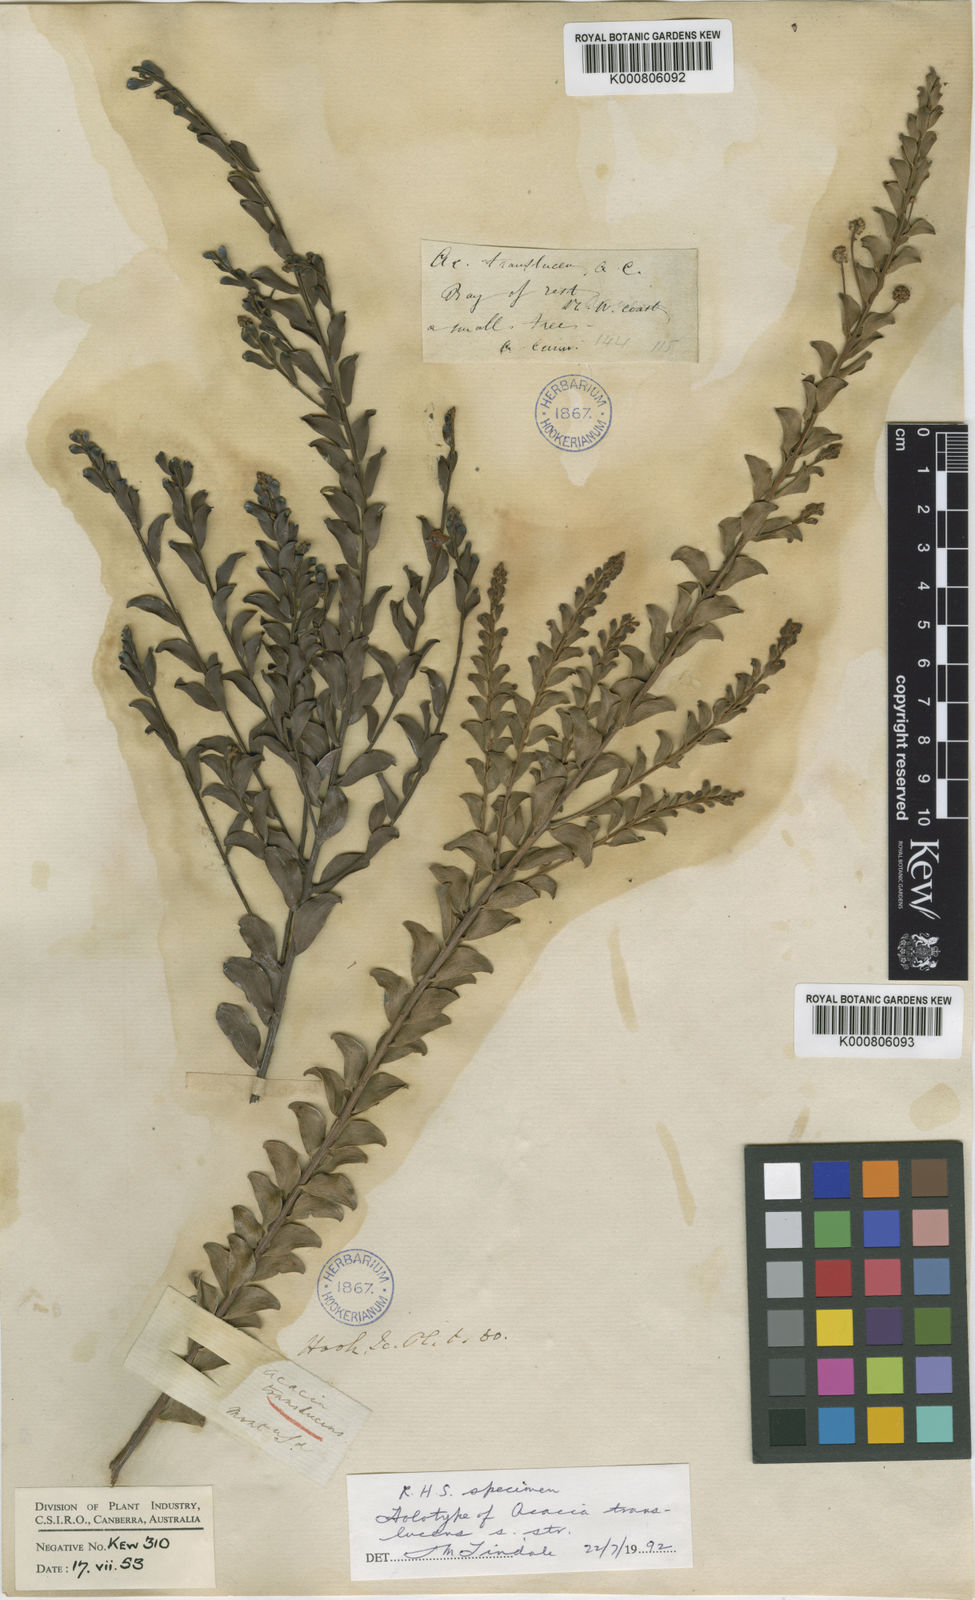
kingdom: Plantae
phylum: Tracheophyta
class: Magnoliopsida
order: Fabales
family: Fabaceae
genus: Acacia
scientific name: Acacia
